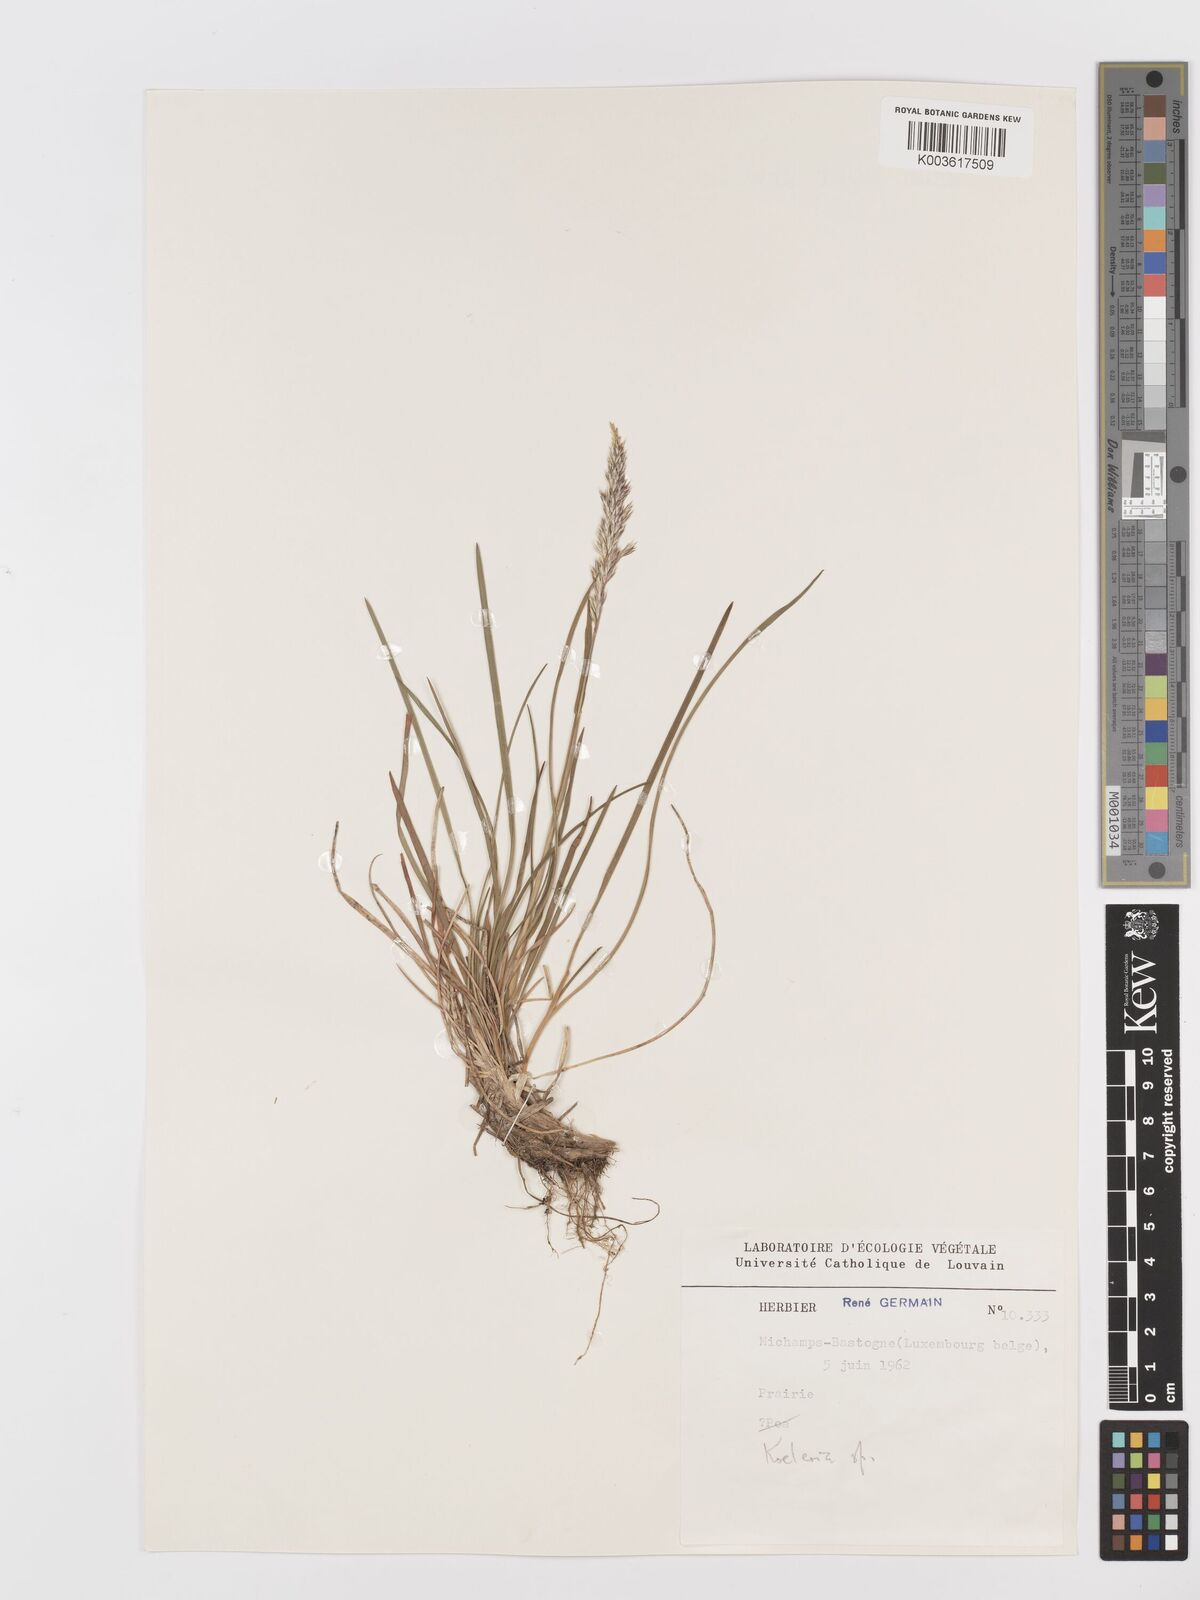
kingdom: Plantae
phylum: Tracheophyta
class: Liliopsida
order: Poales
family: Poaceae
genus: Koeleria
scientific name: Koeleria
